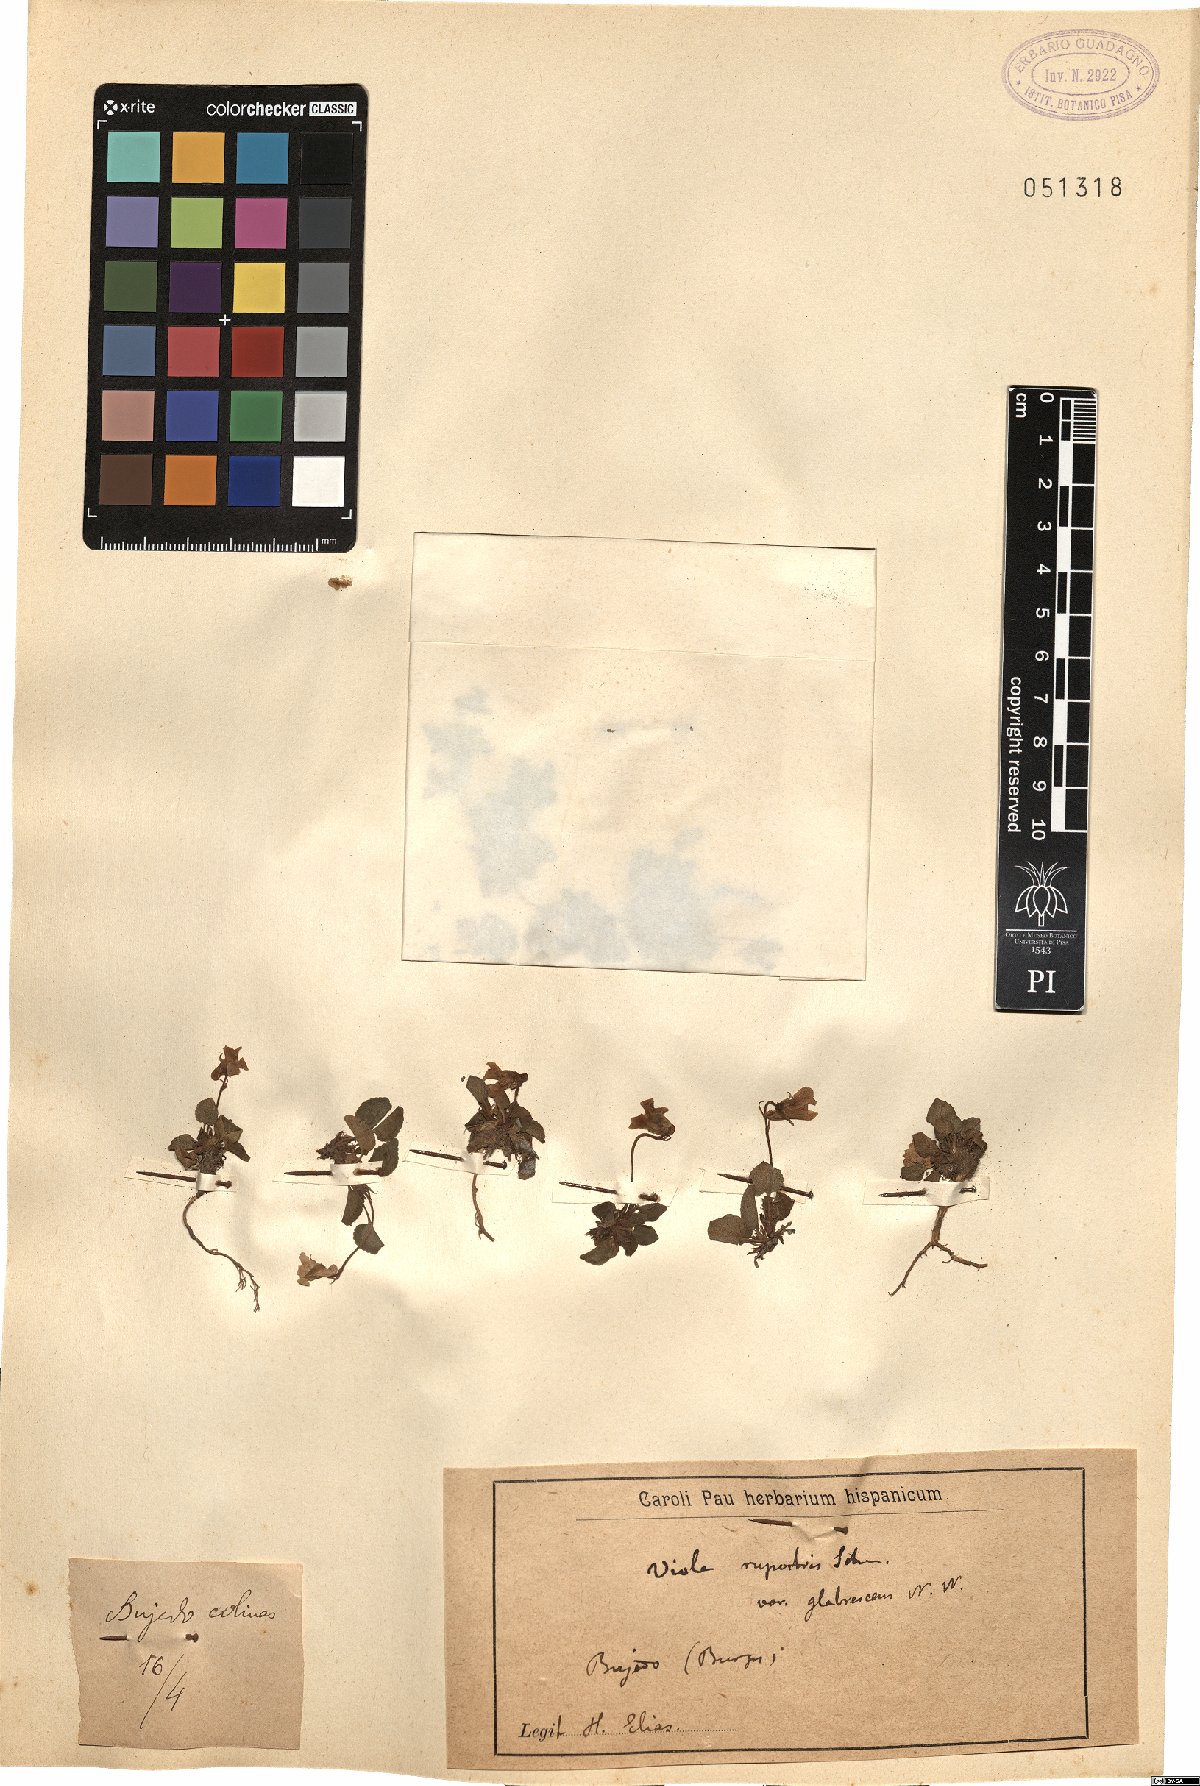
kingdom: Plantae
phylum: Tracheophyta
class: Magnoliopsida
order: Malpighiales
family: Violaceae
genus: Viola
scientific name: Viola rupestris
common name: Teesdale violet
